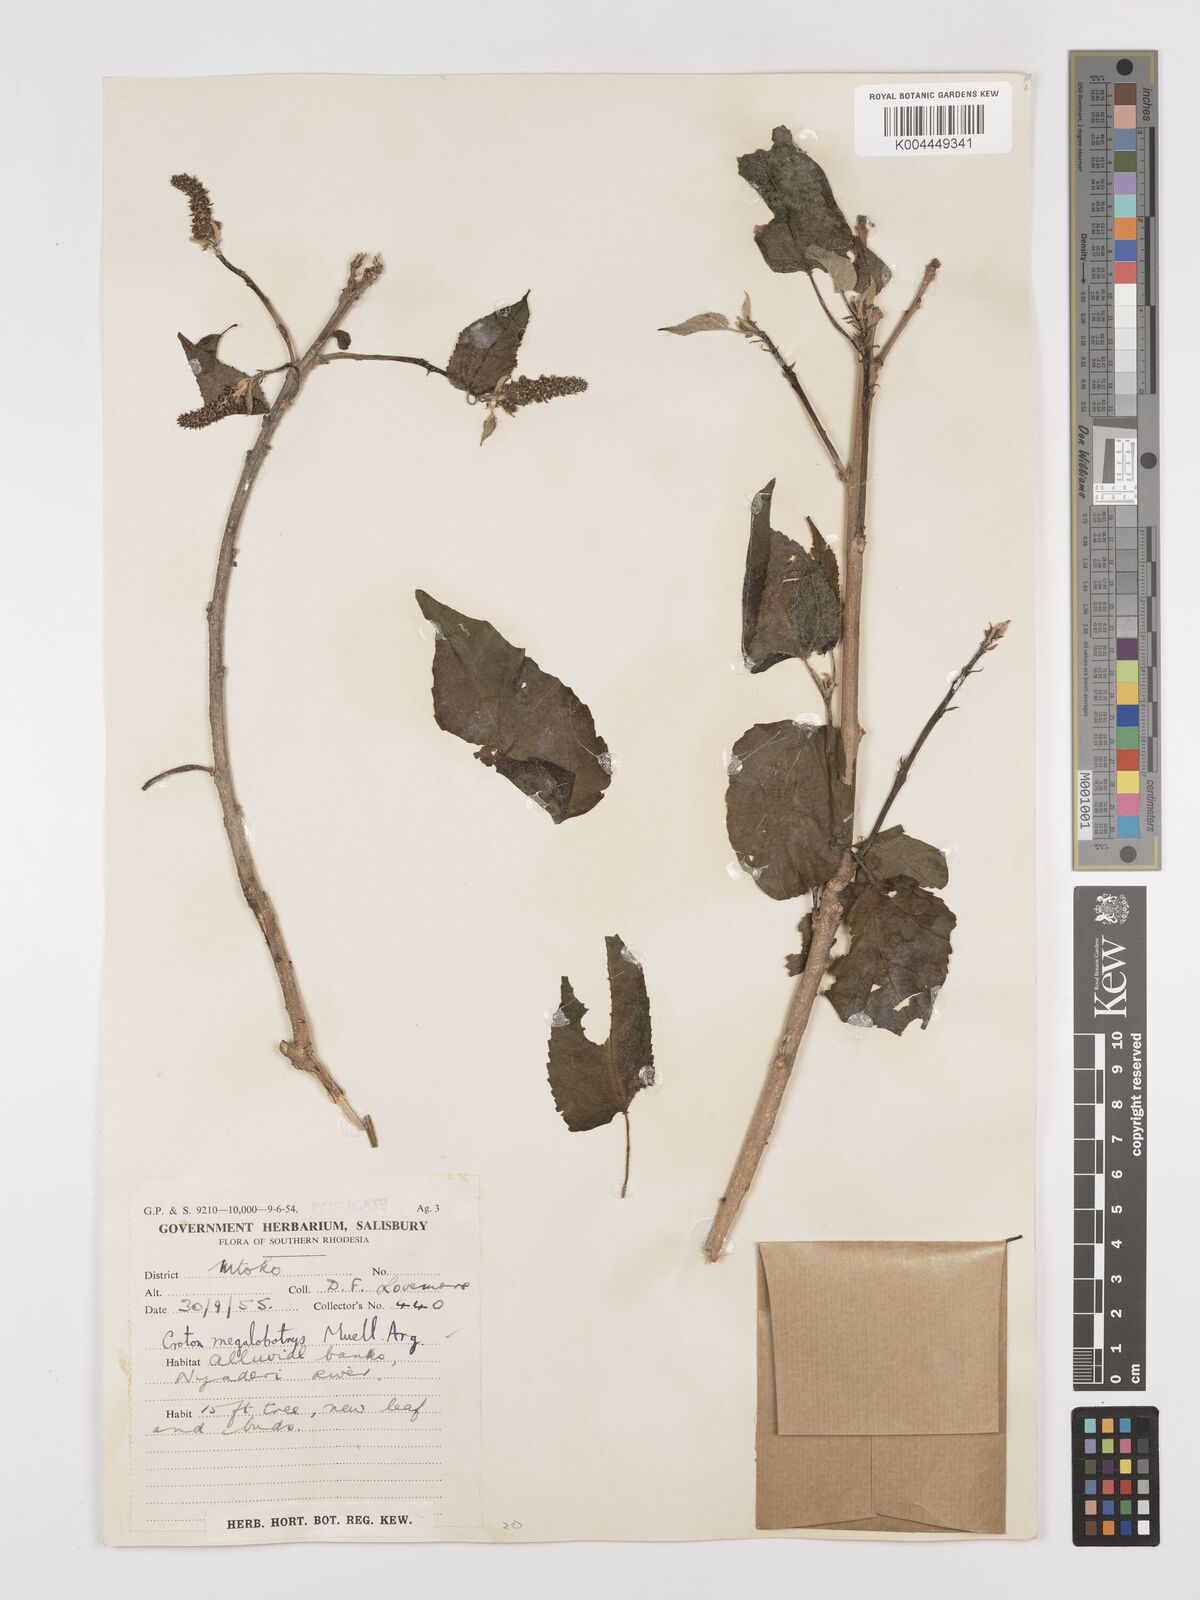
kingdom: Plantae
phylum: Tracheophyta
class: Magnoliopsida
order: Malpighiales
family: Euphorbiaceae
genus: Croton
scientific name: Croton megalobotrys
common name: Large fever berry
